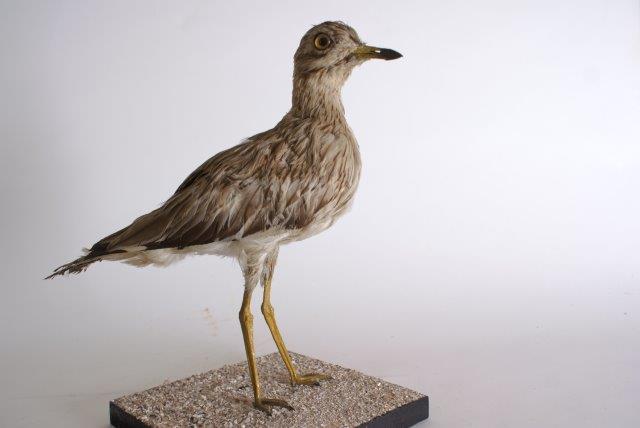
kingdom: Animalia
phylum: Chordata
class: Aves
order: Charadriiformes
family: Burhinidae
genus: Burhinus
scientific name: Burhinus oedicnemus
